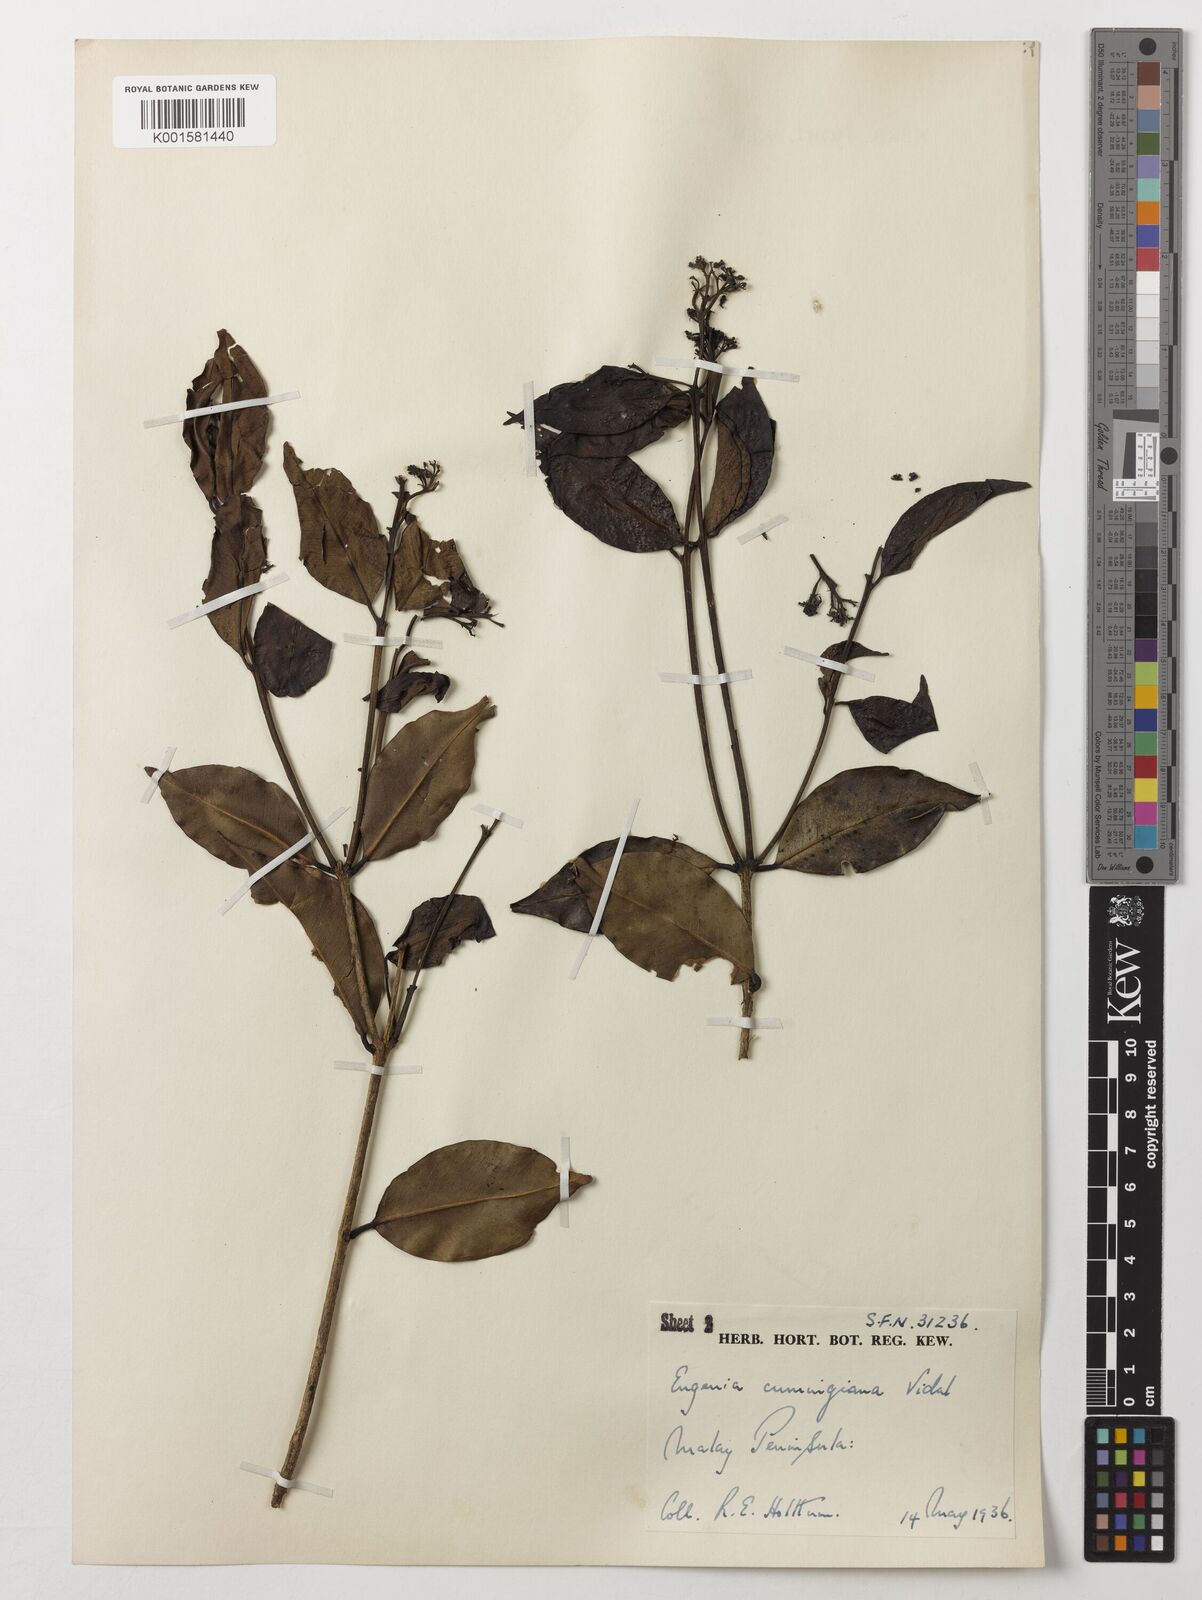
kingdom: Plantae
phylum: Tracheophyta
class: Magnoliopsida
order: Myrtales
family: Myrtaceae
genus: Syzygium
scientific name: Syzygium acuminatissimum
